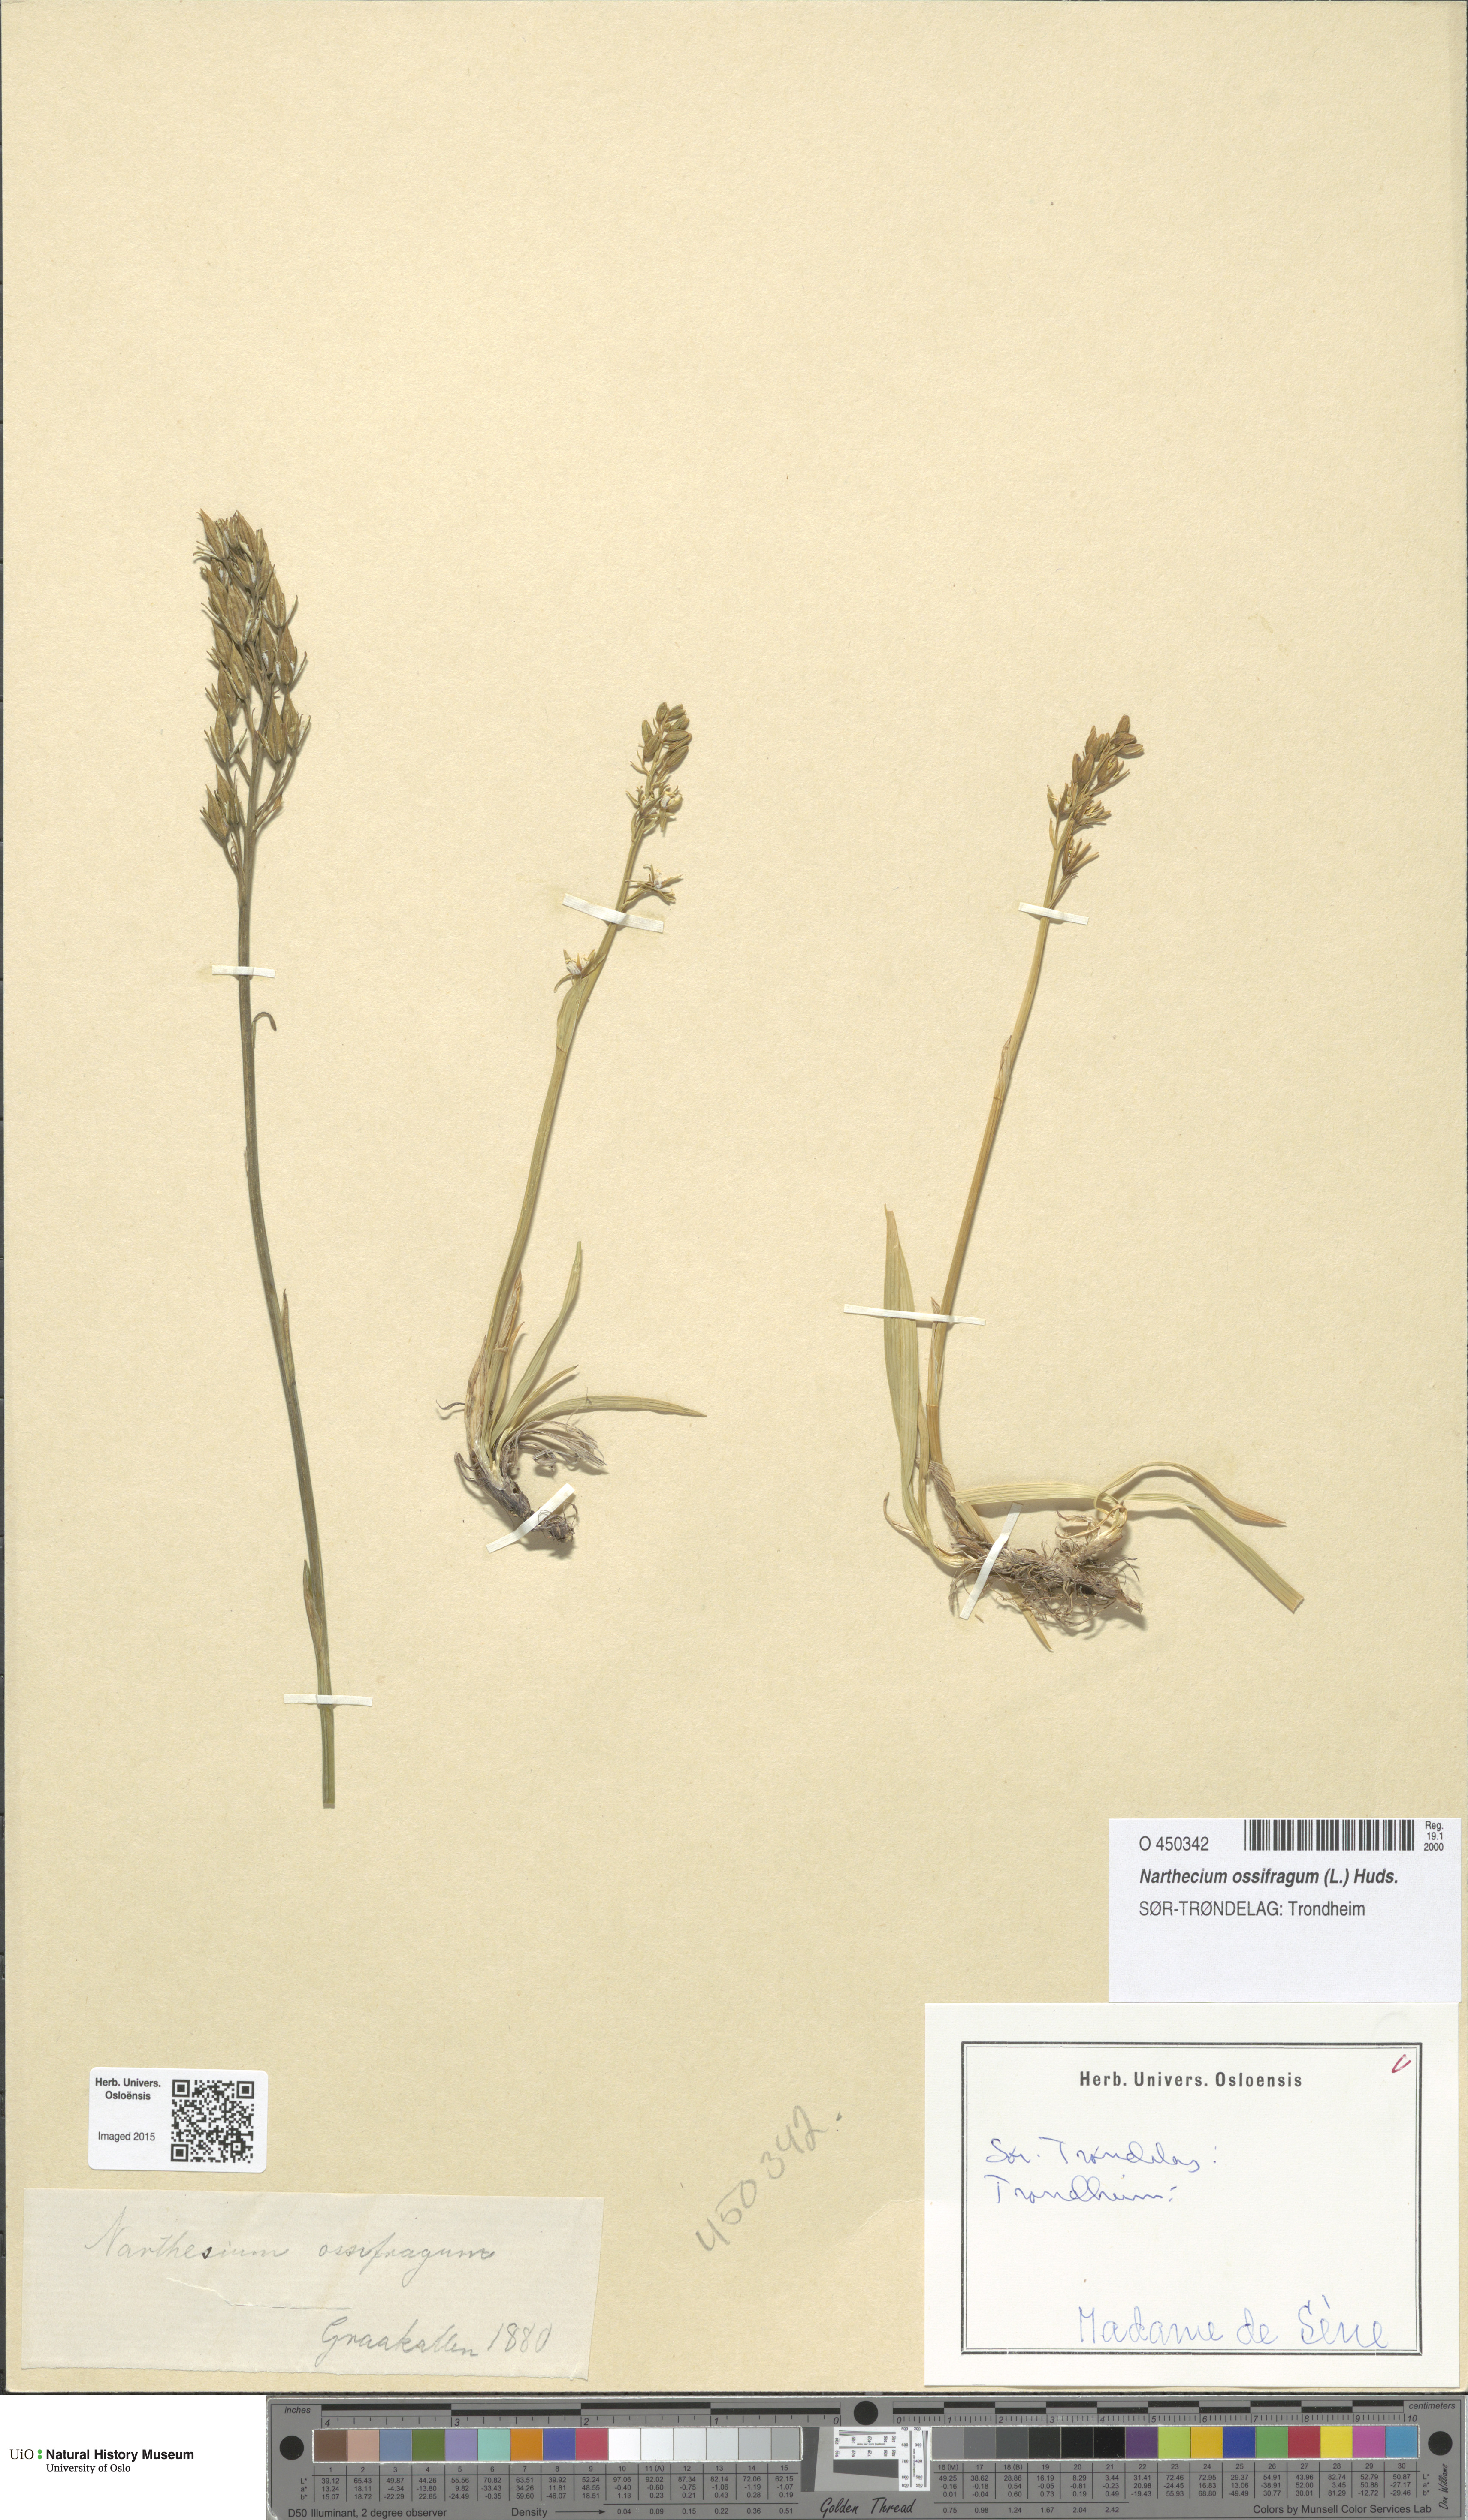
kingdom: Plantae
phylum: Tracheophyta
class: Liliopsida
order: Dioscoreales
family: Nartheciaceae
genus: Narthecium
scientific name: Narthecium ossifragum
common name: Bog asphodel
